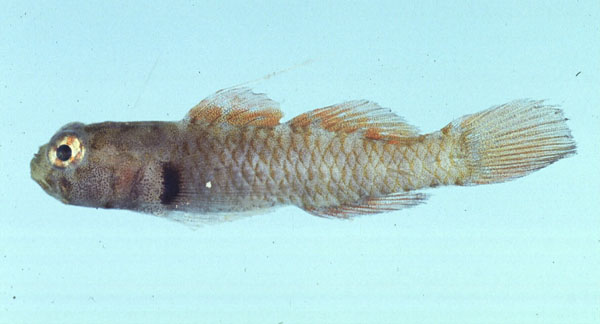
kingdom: Animalia
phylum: Chordata
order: Perciformes
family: Gobiidae
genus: Eviota
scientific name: Eviota monostigma
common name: Singlespot eviota
